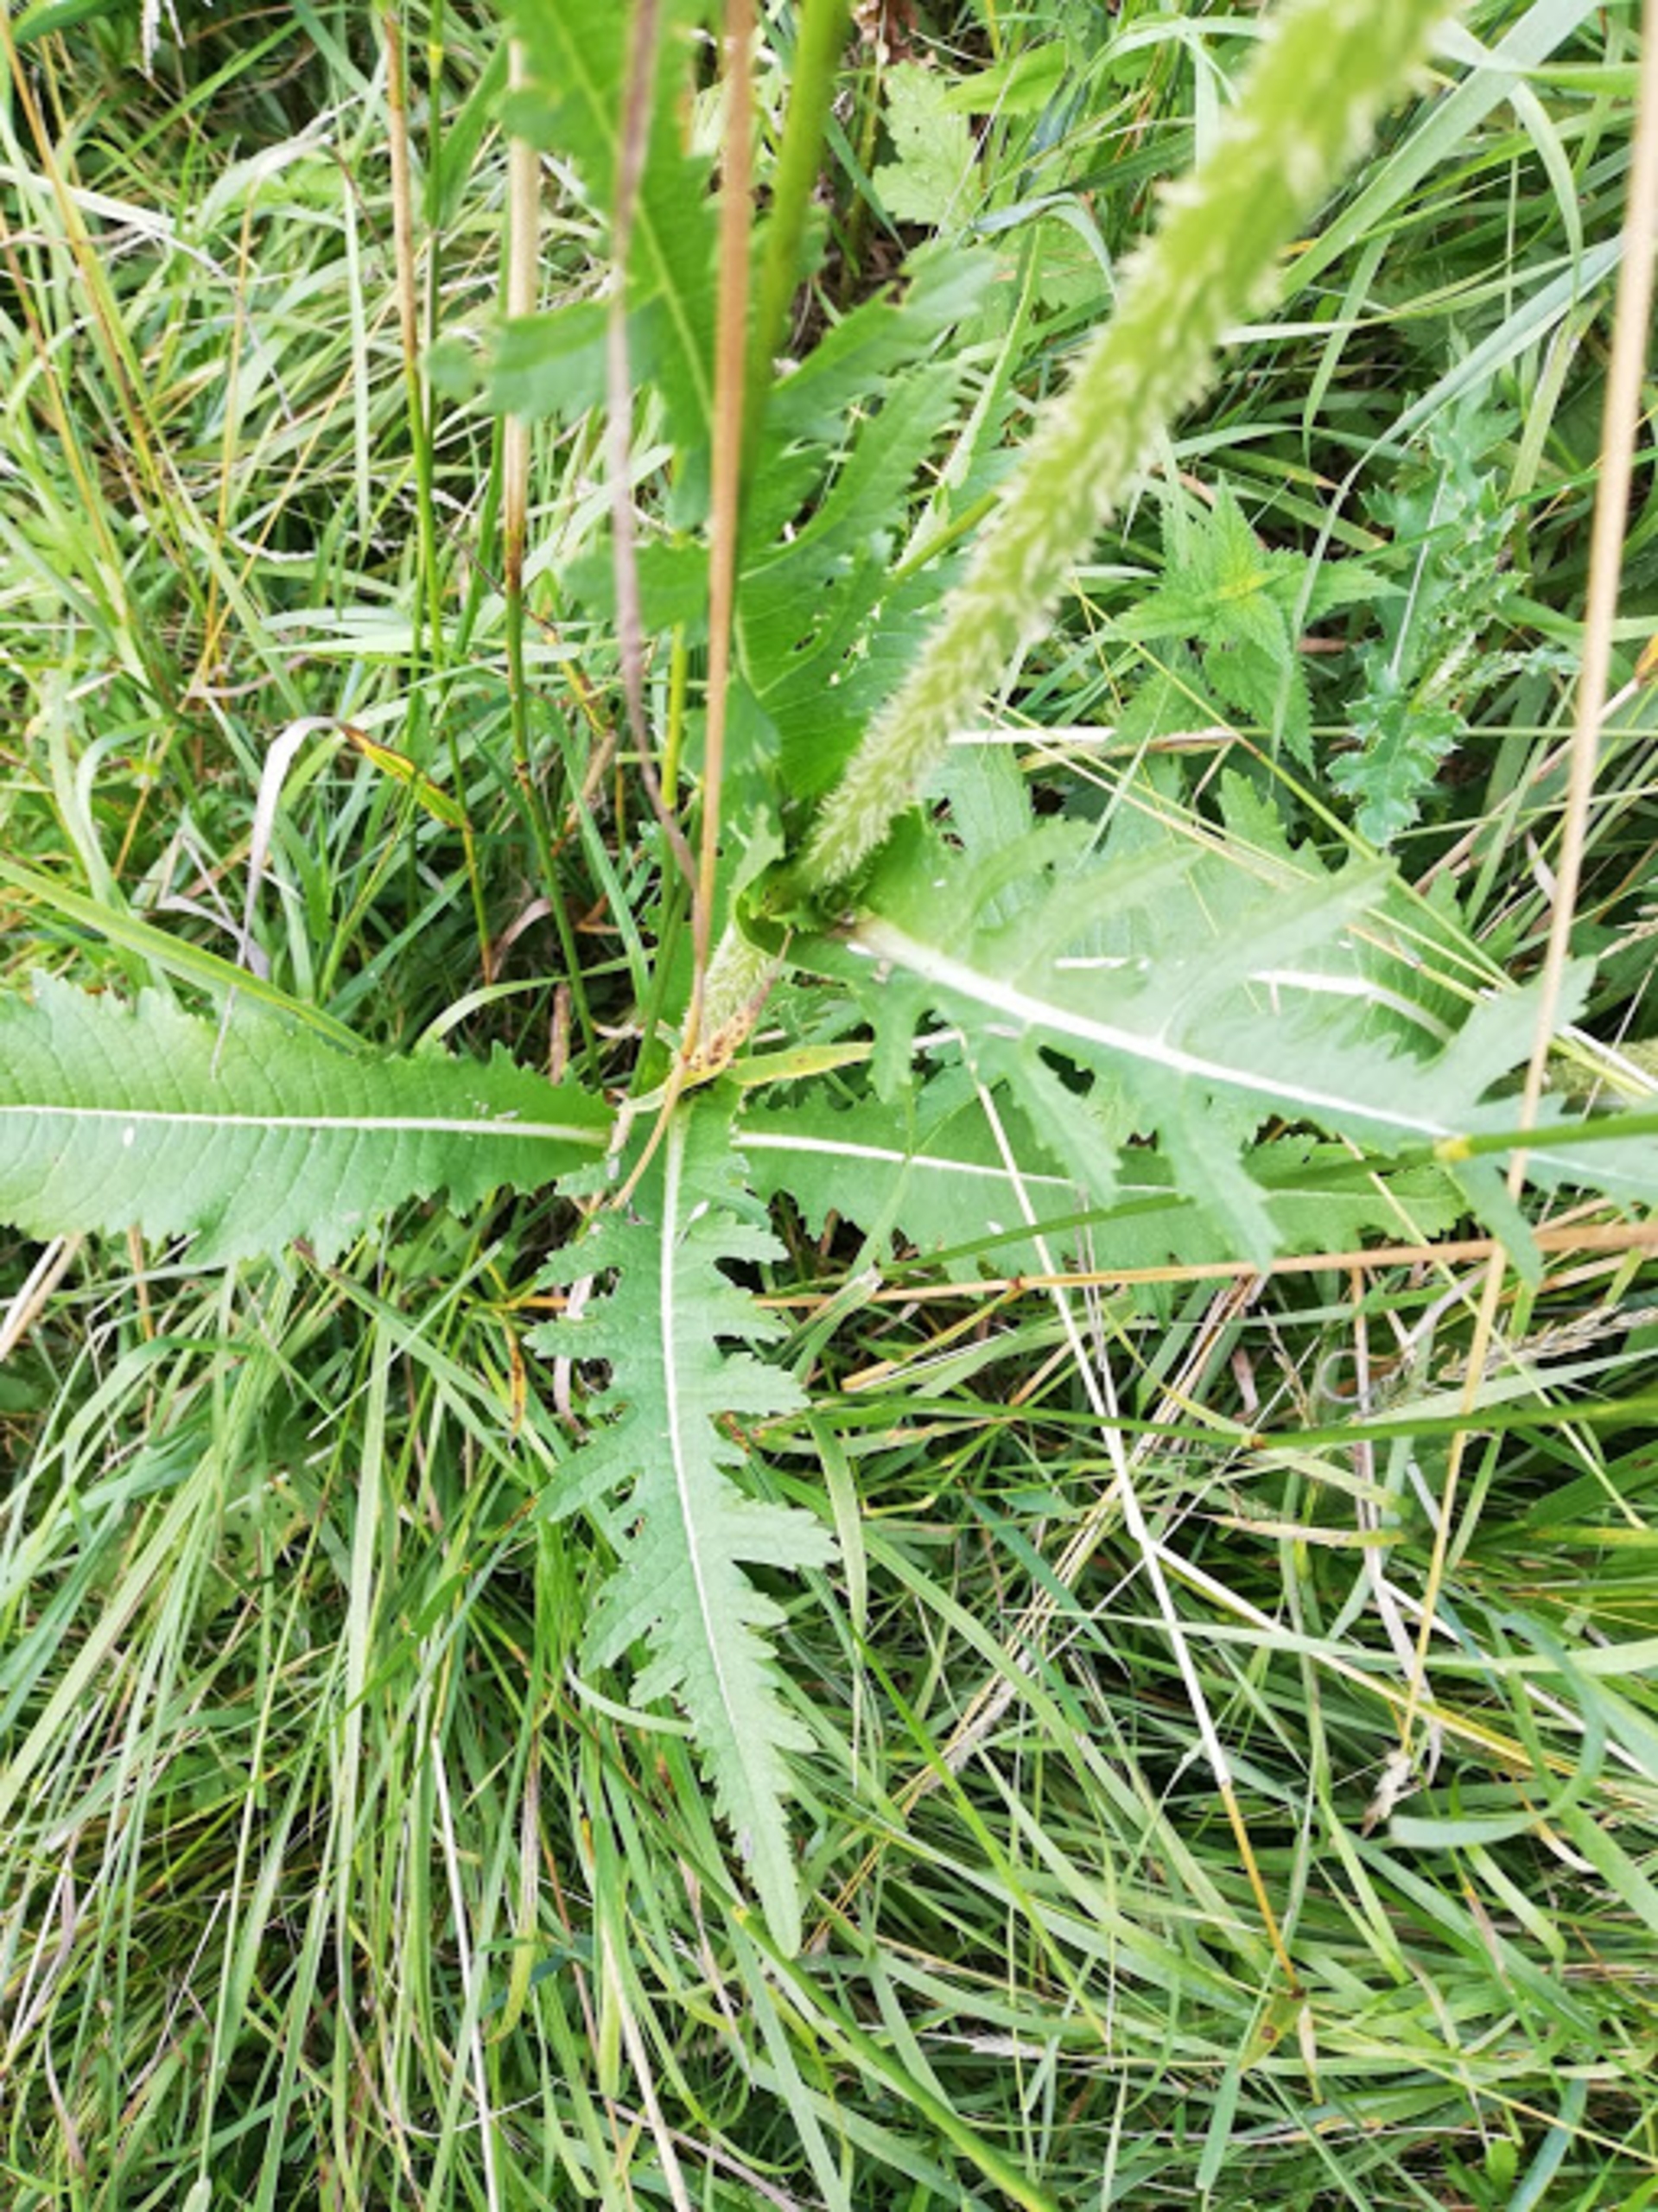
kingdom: Plantae
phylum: Tracheophyta
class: Magnoliopsida
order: Dipsacales
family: Caprifoliaceae
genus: Dipsacus
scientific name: Dipsacus laciniatus
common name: Fliget kartebolle
